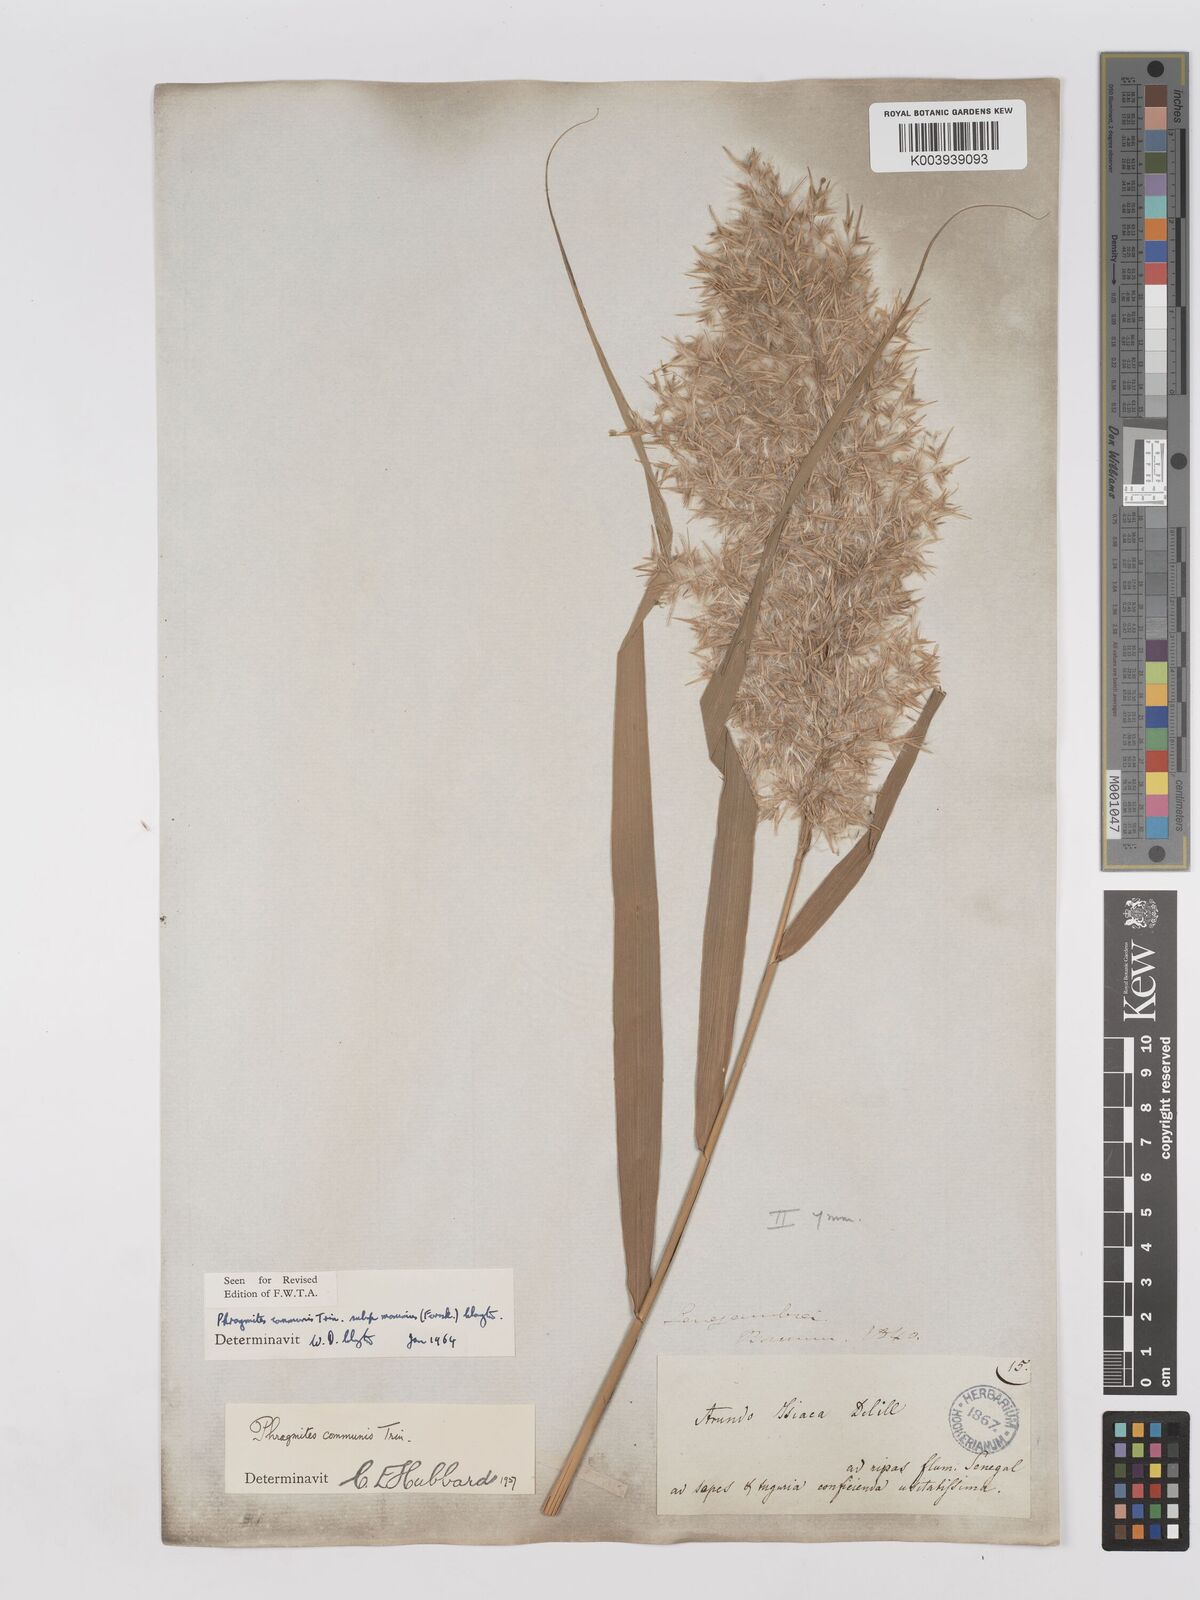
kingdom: Plantae
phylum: Tracheophyta
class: Liliopsida
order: Poales
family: Poaceae
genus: Phragmites
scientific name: Phragmites australis
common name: Common reed
